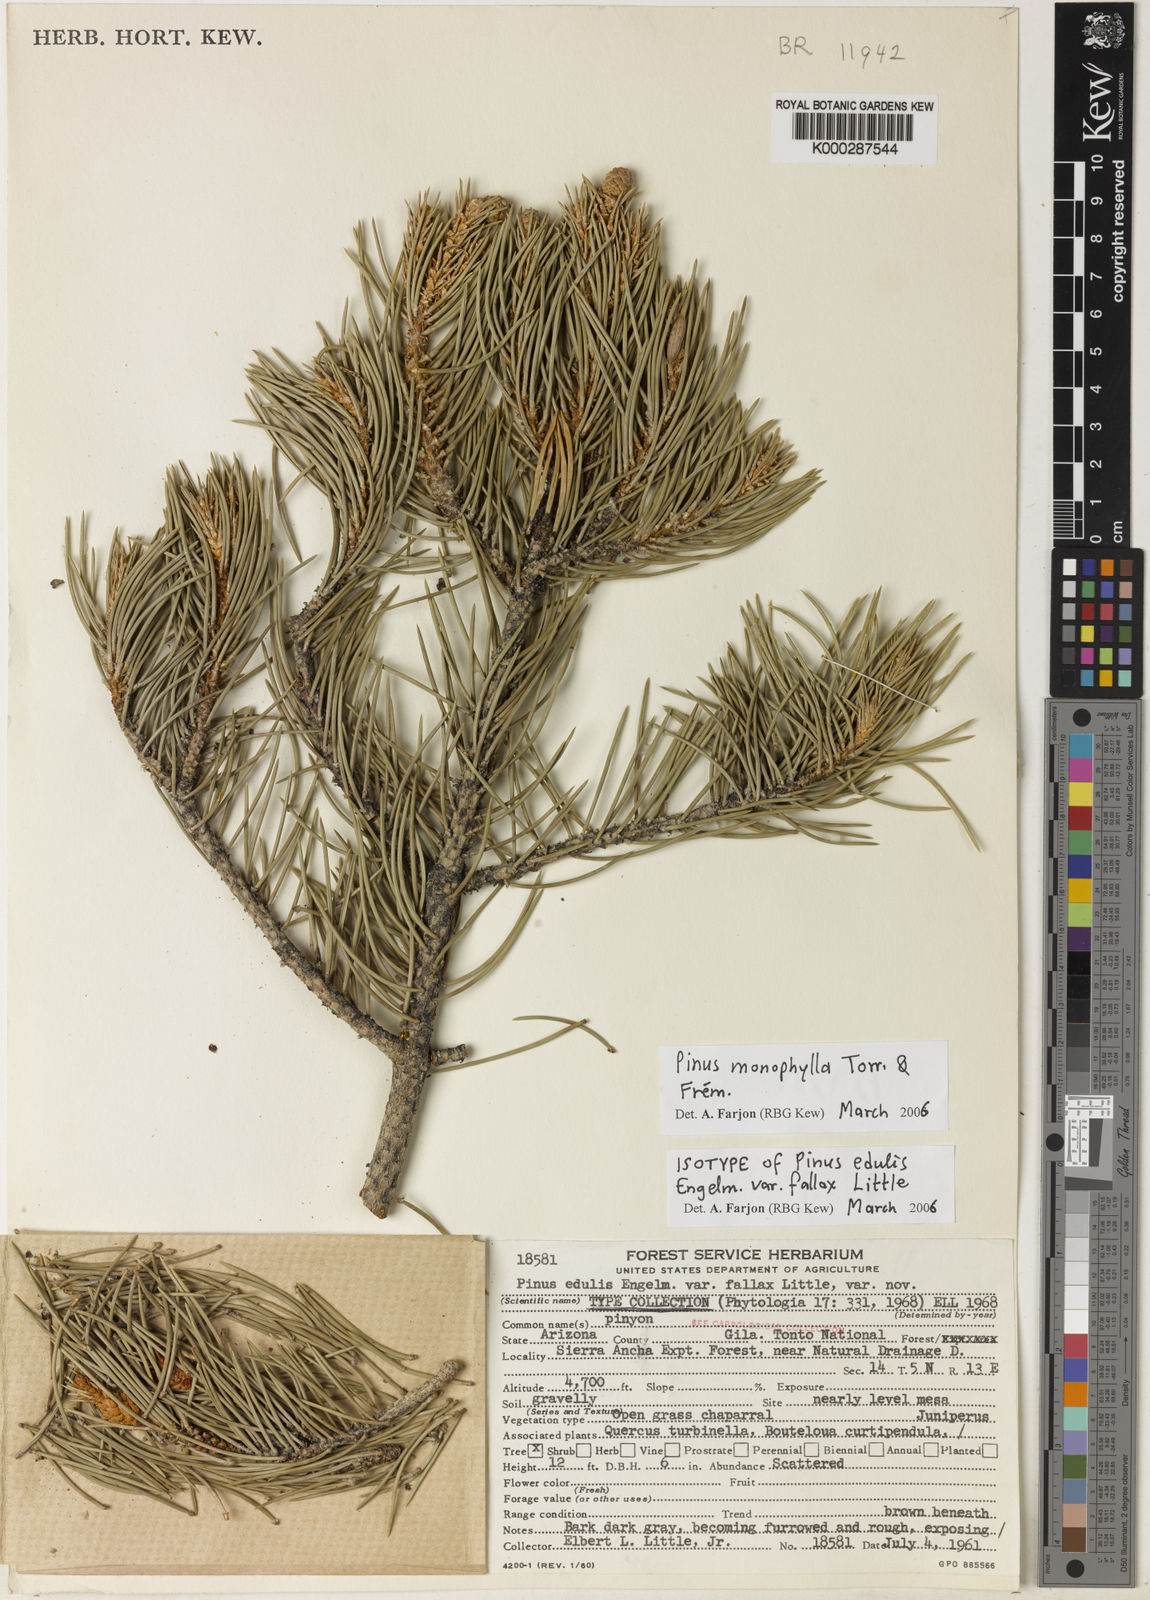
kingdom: Plantae
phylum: Tracheophyta
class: Pinopsida
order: Pinales
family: Pinaceae
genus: Pinus
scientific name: Pinus
